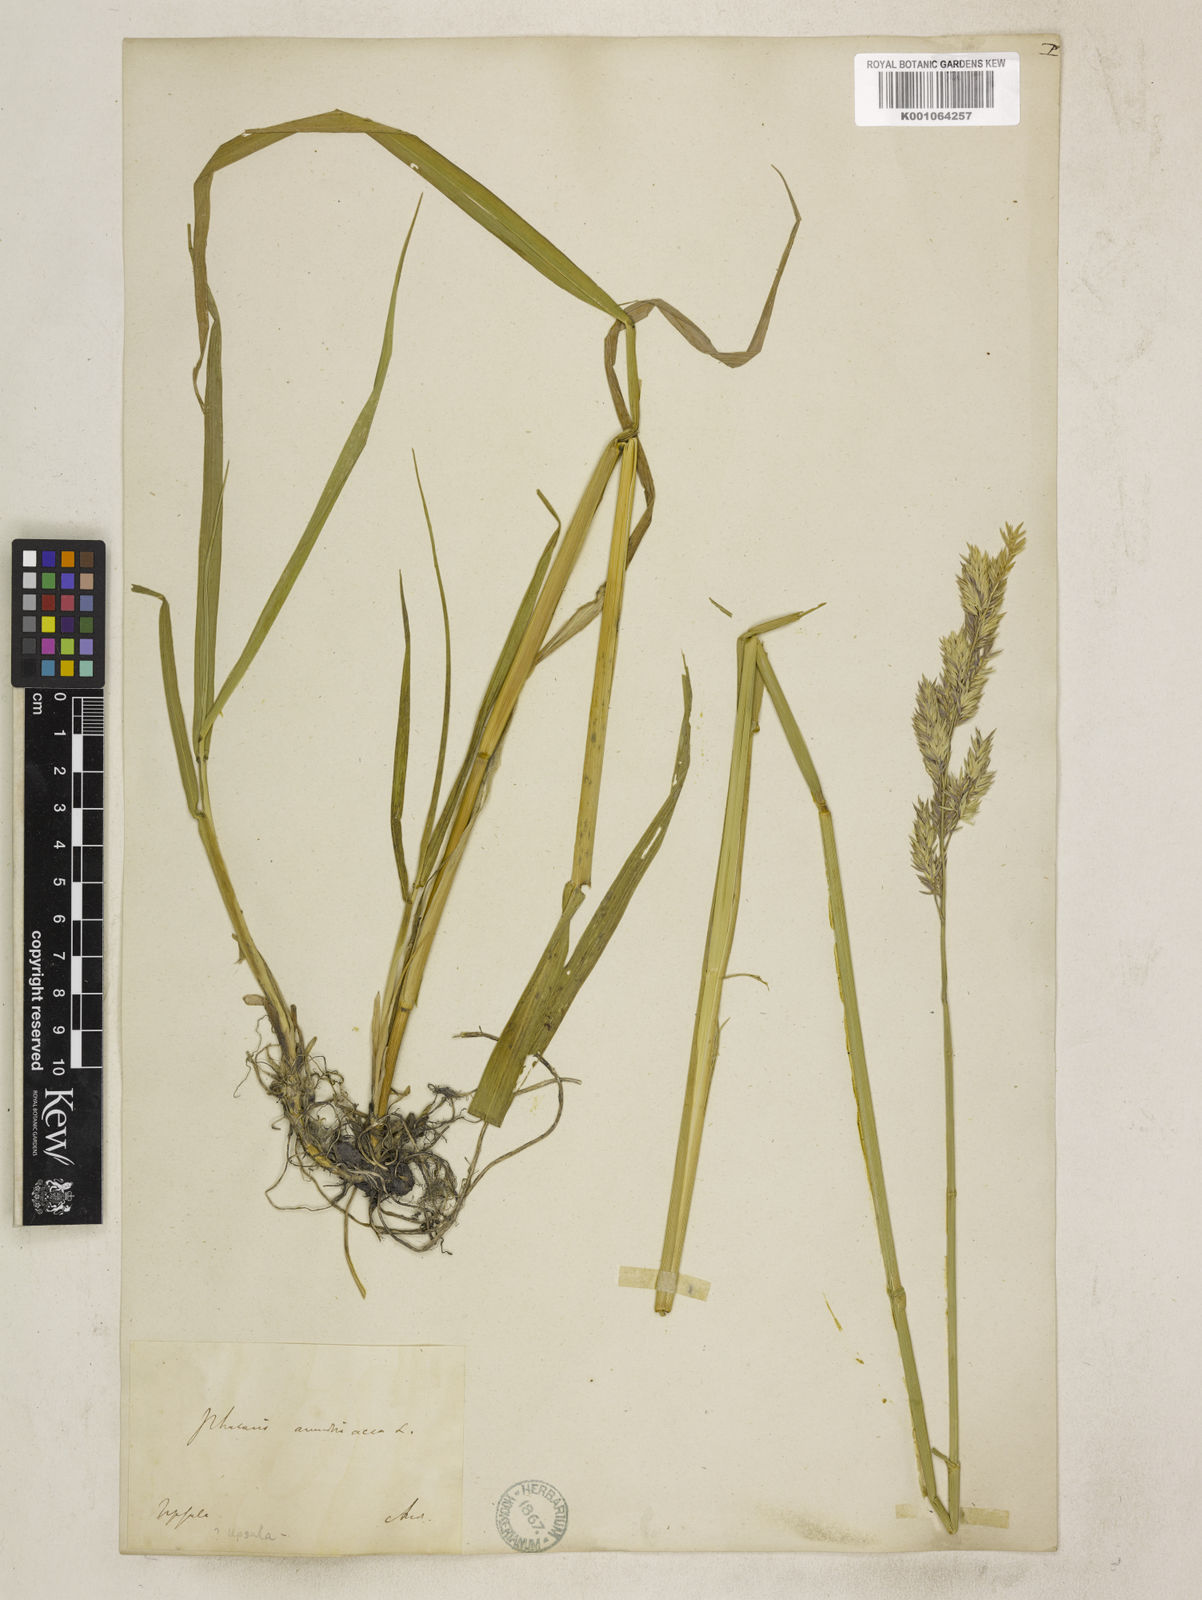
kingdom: Plantae
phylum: Tracheophyta
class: Liliopsida
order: Poales
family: Poaceae
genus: Phalaris
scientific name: Phalaris arundinacea
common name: Reed canary-grass
